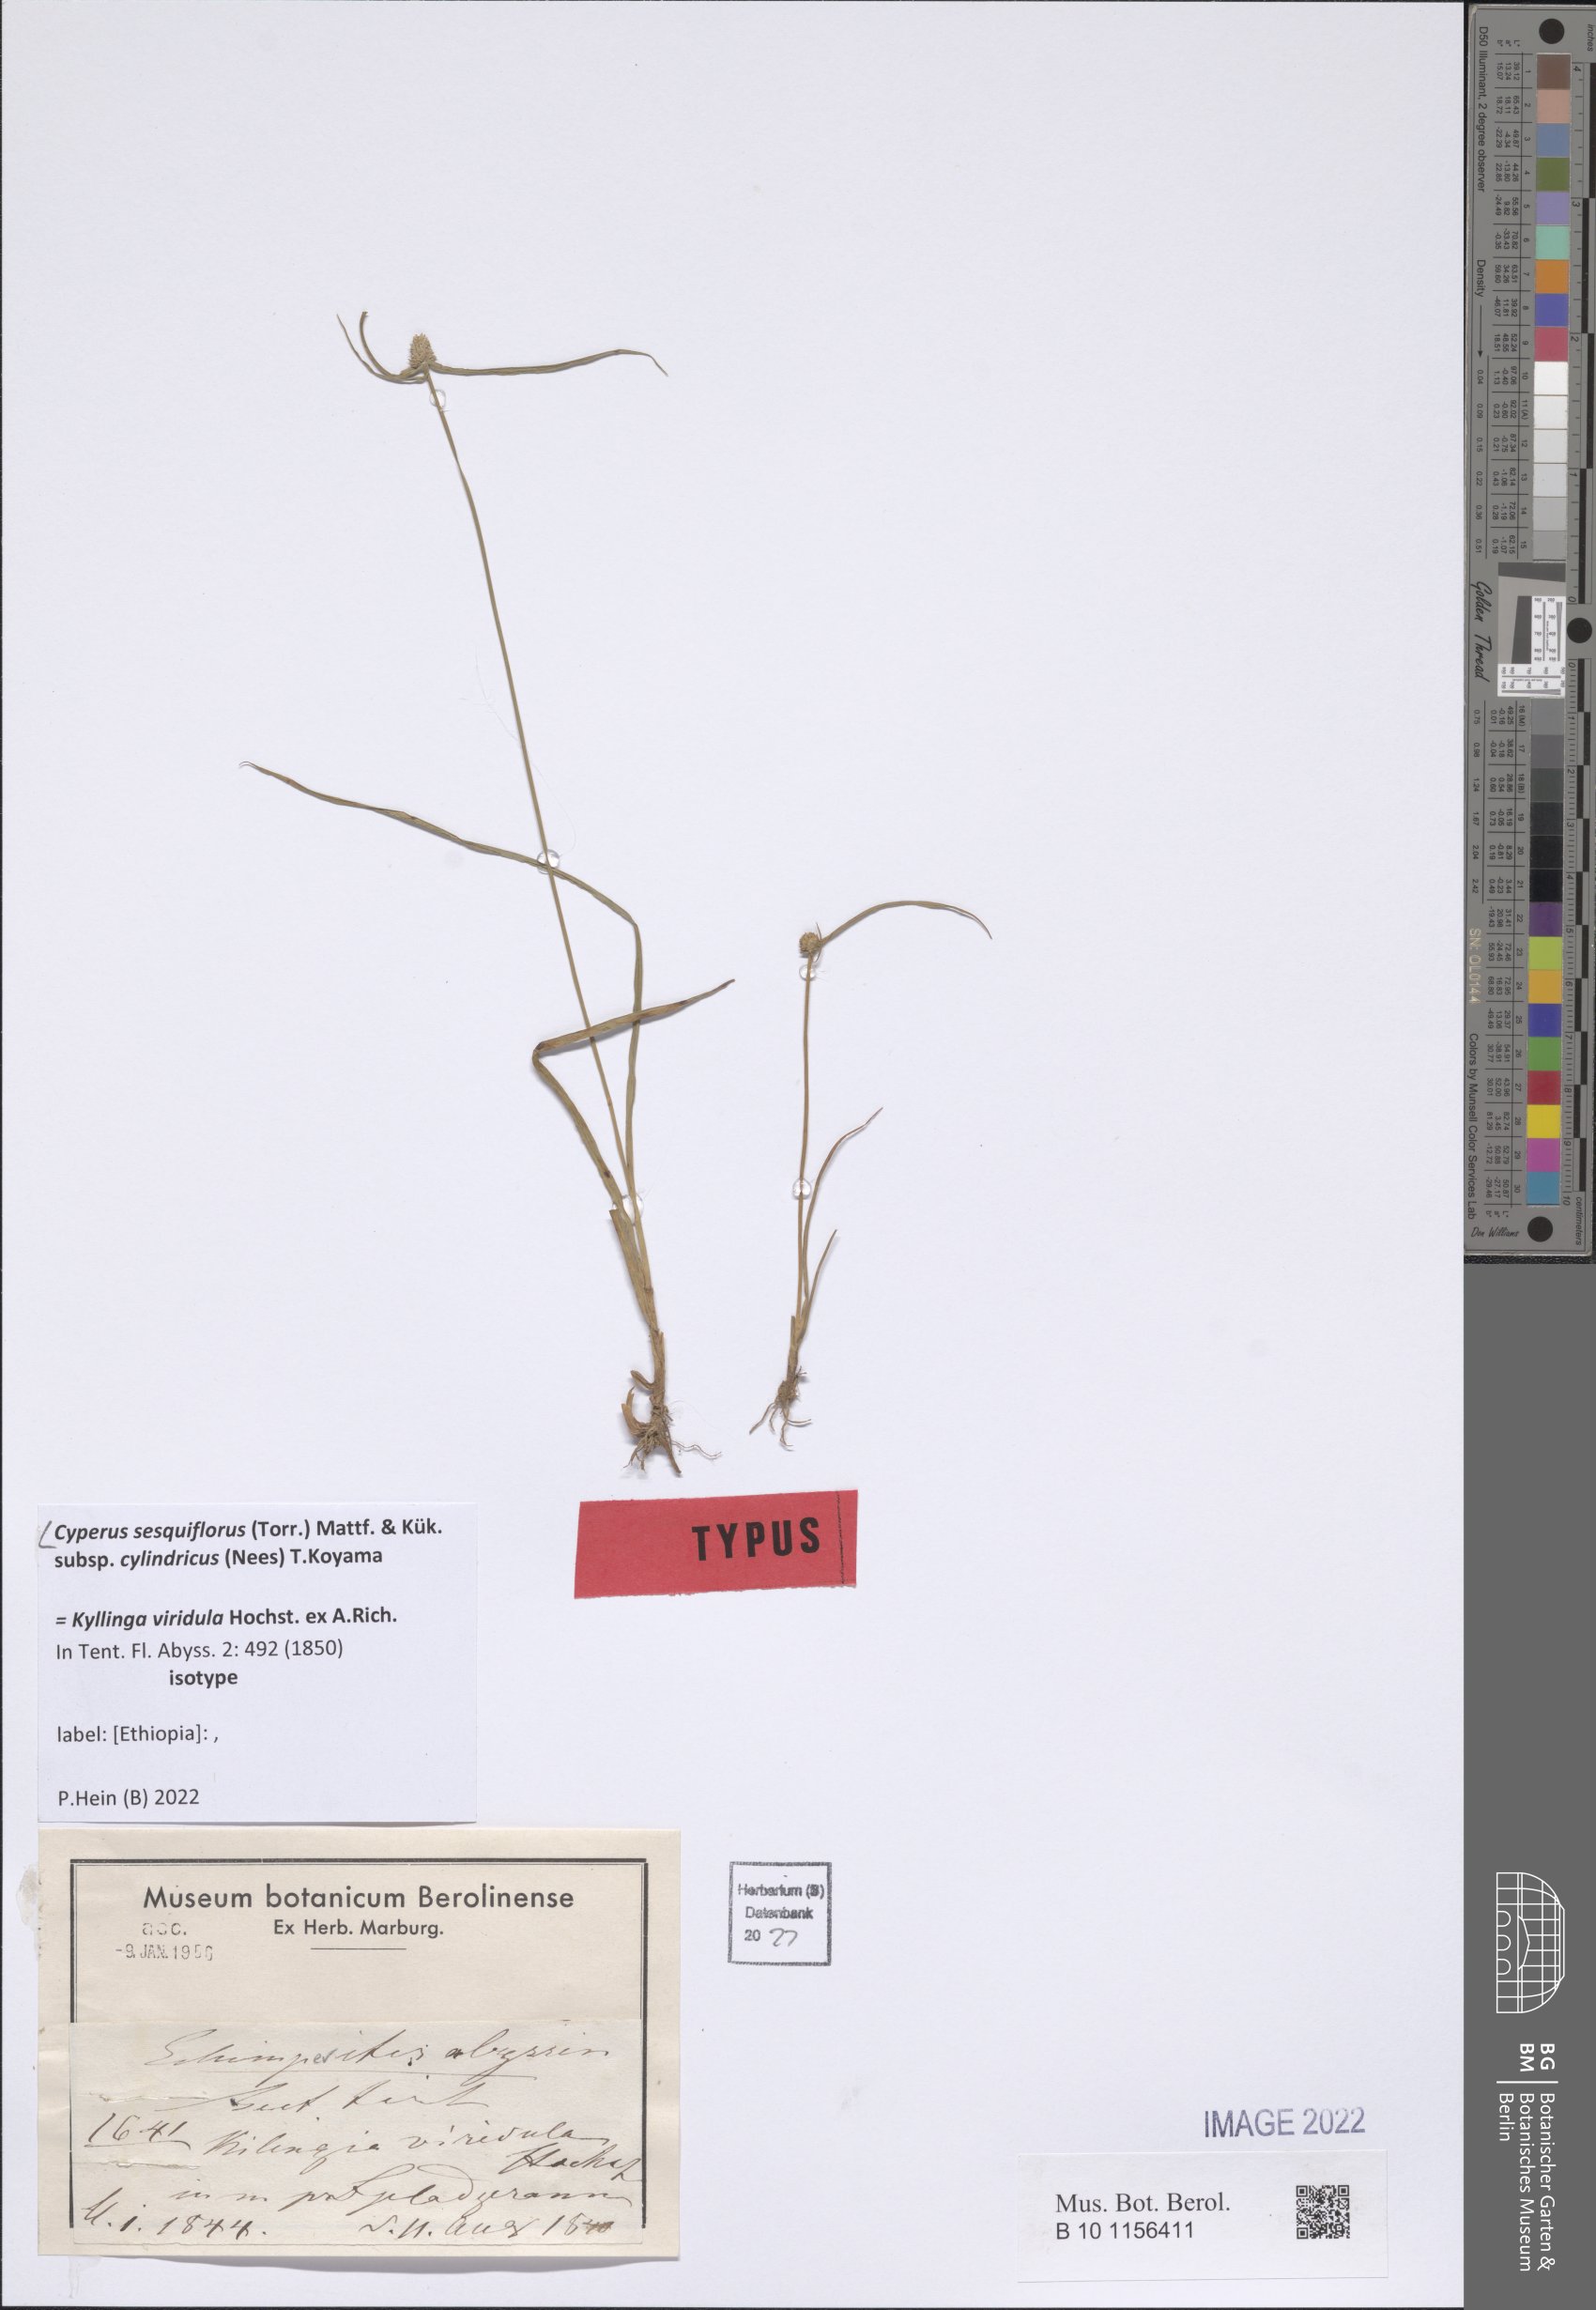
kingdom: Plantae
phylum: Tracheophyta
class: Liliopsida
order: Poales
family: Cyperaceae
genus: Cyperus
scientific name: Cyperus sesquiflorus
